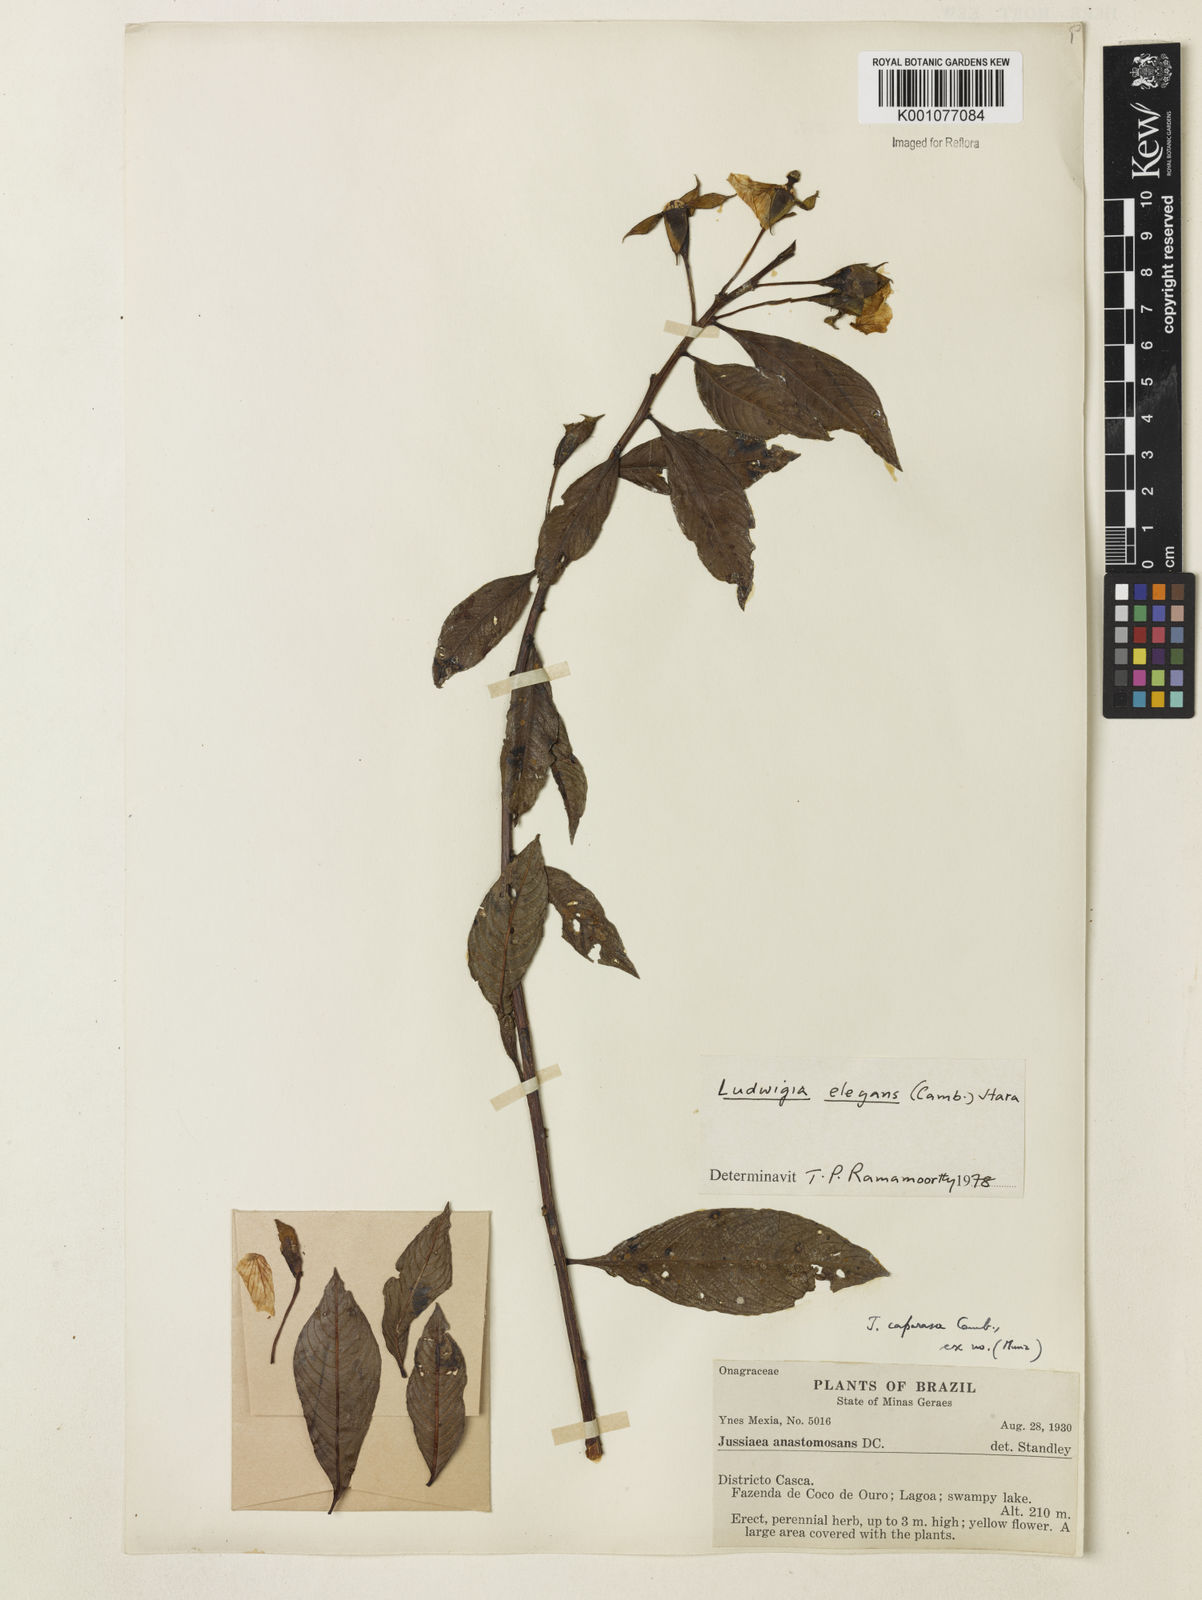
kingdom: Plantae
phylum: Tracheophyta
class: Magnoliopsida
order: Myrtales
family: Onagraceae
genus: Ludwigia
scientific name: Ludwigia elegans
